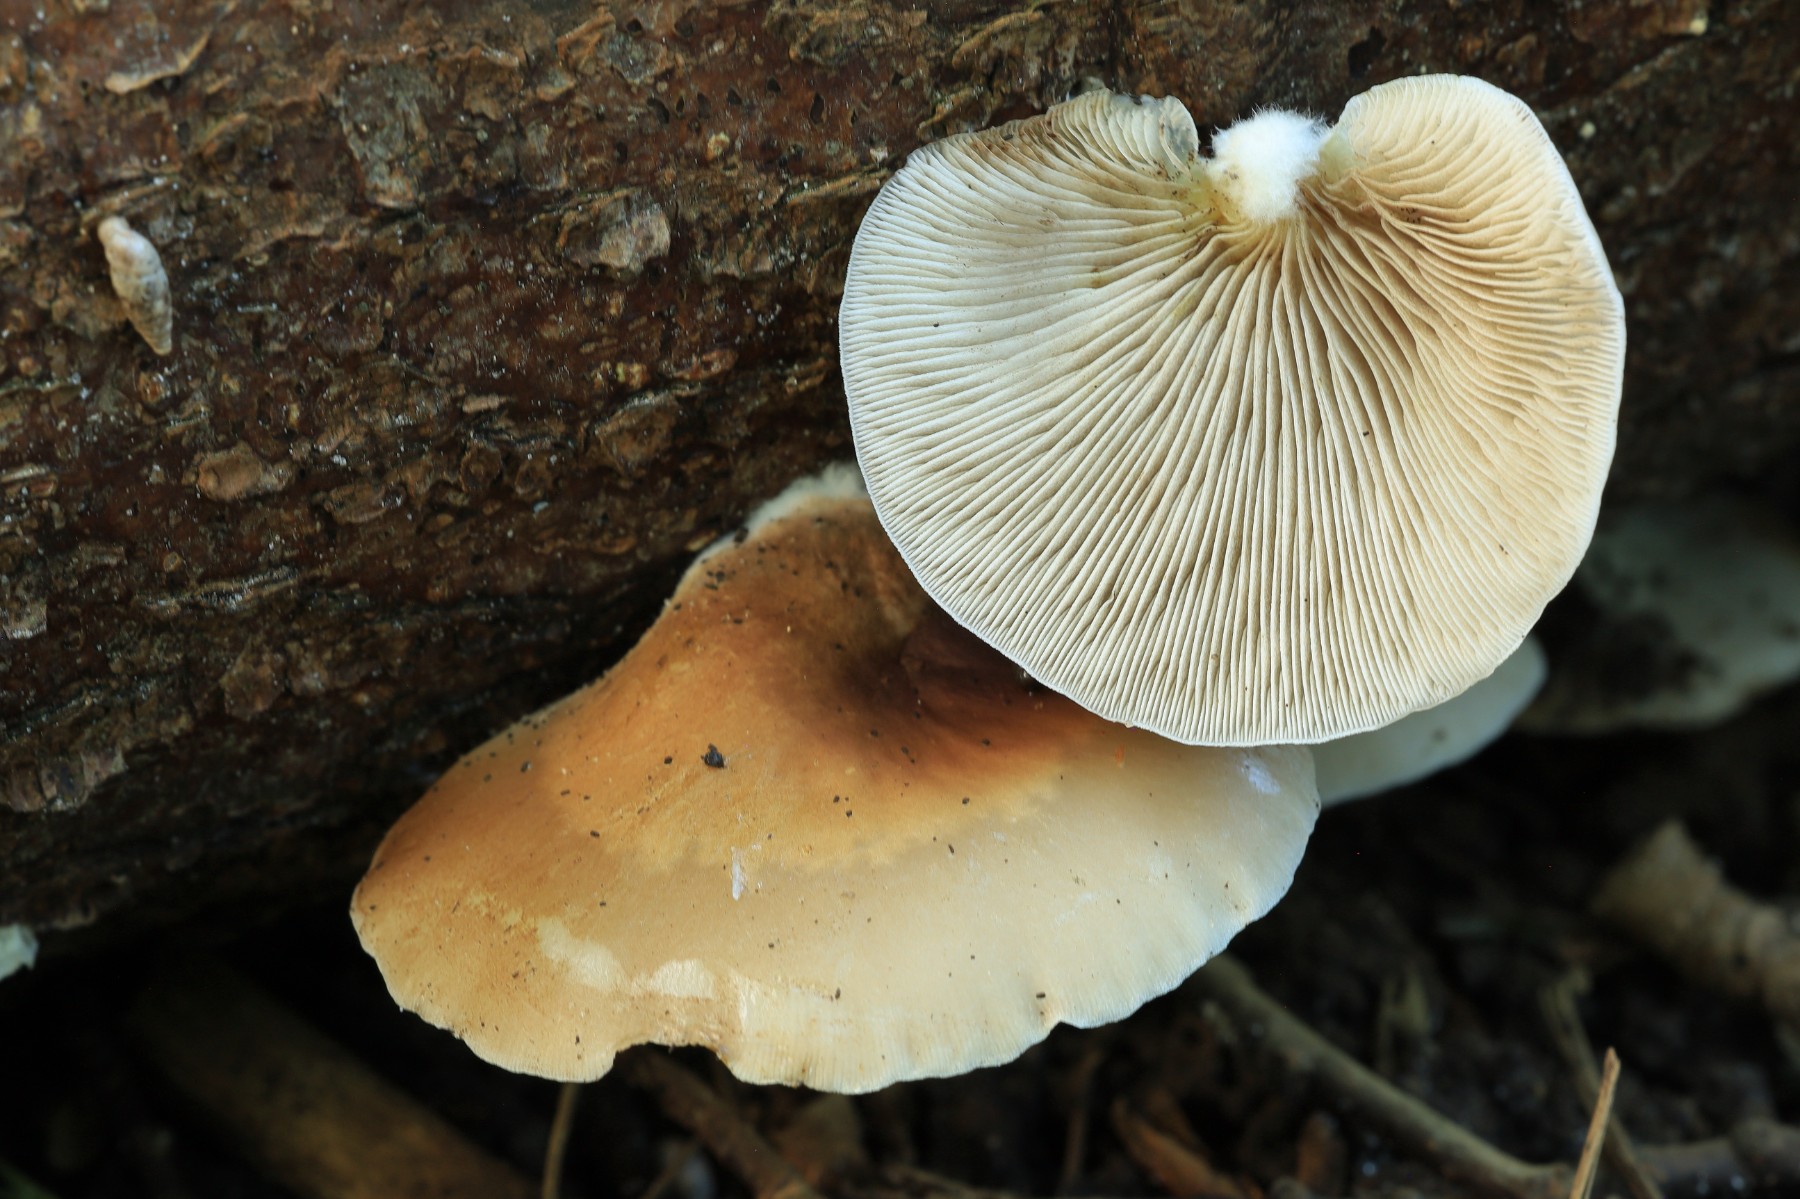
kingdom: Fungi
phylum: Basidiomycota
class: Agaricomycetes
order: Agaricales
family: Crepidotaceae
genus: Crepidotus
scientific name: Crepidotus mollis
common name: blød muslingesvamp
